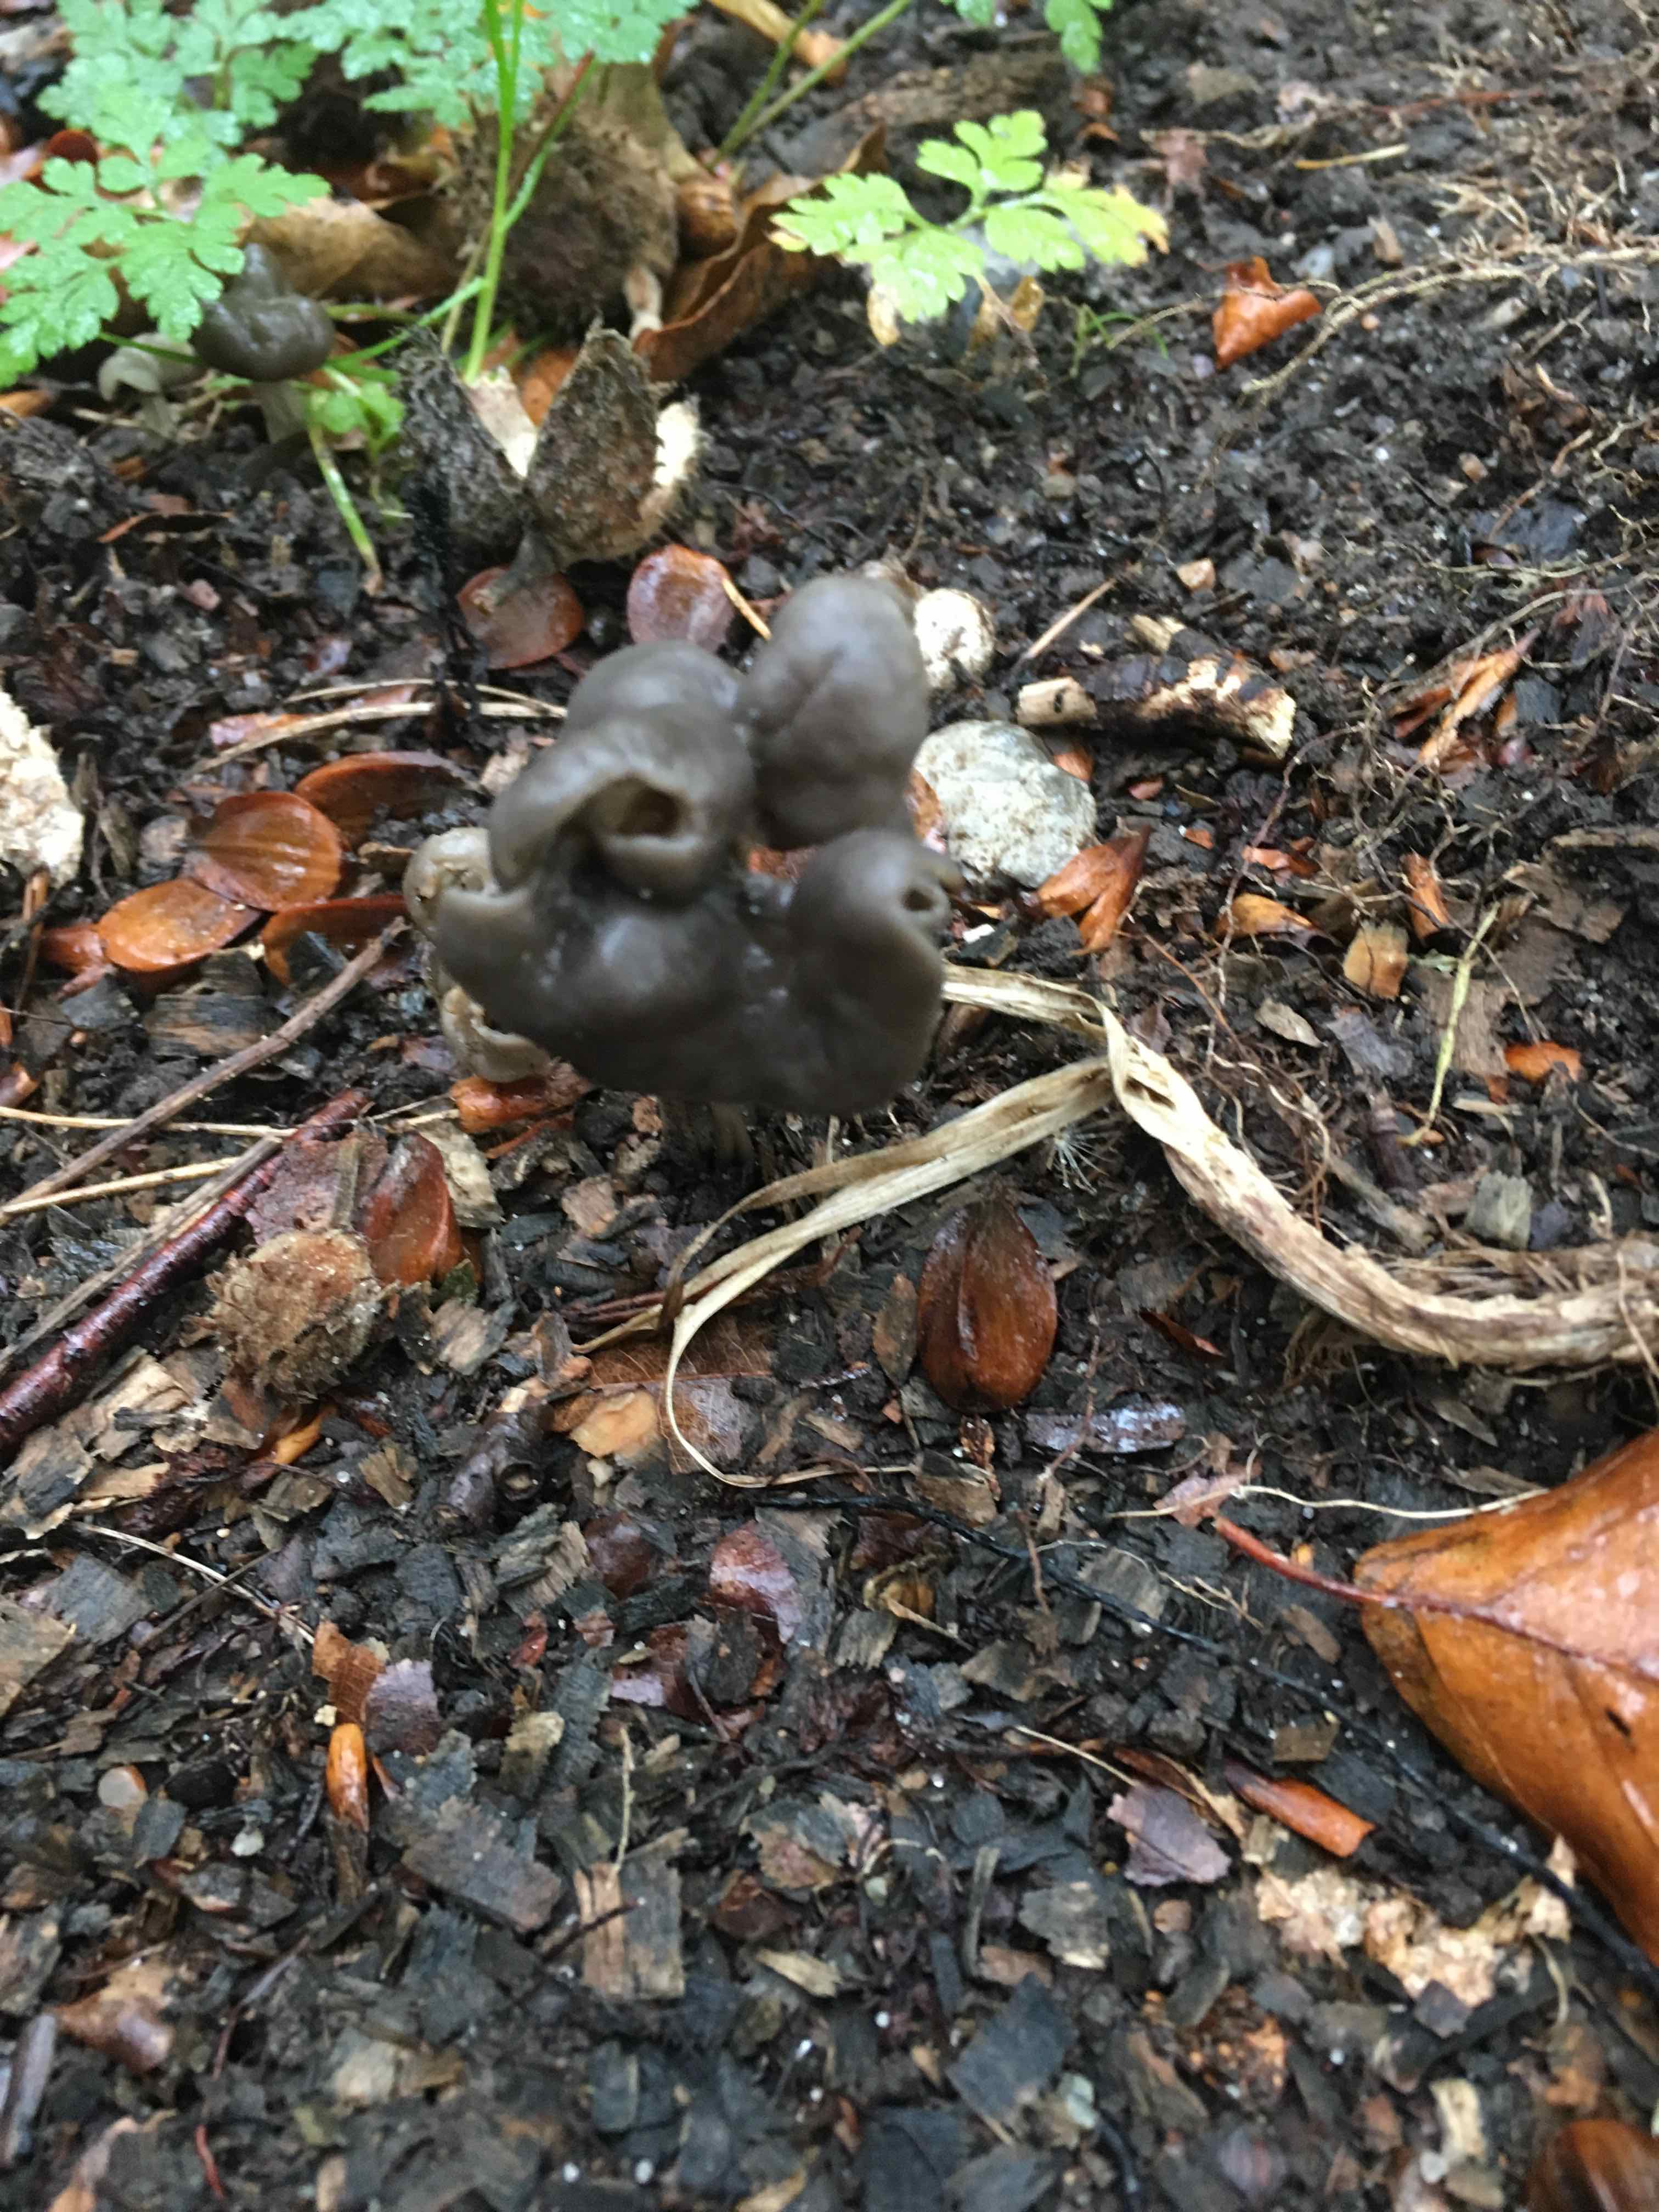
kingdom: Fungi
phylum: Ascomycota
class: Pezizomycetes
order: Pezizales
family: Helvellaceae
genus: Helvella
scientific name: Helvella lacunosa
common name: grubet foldhat
